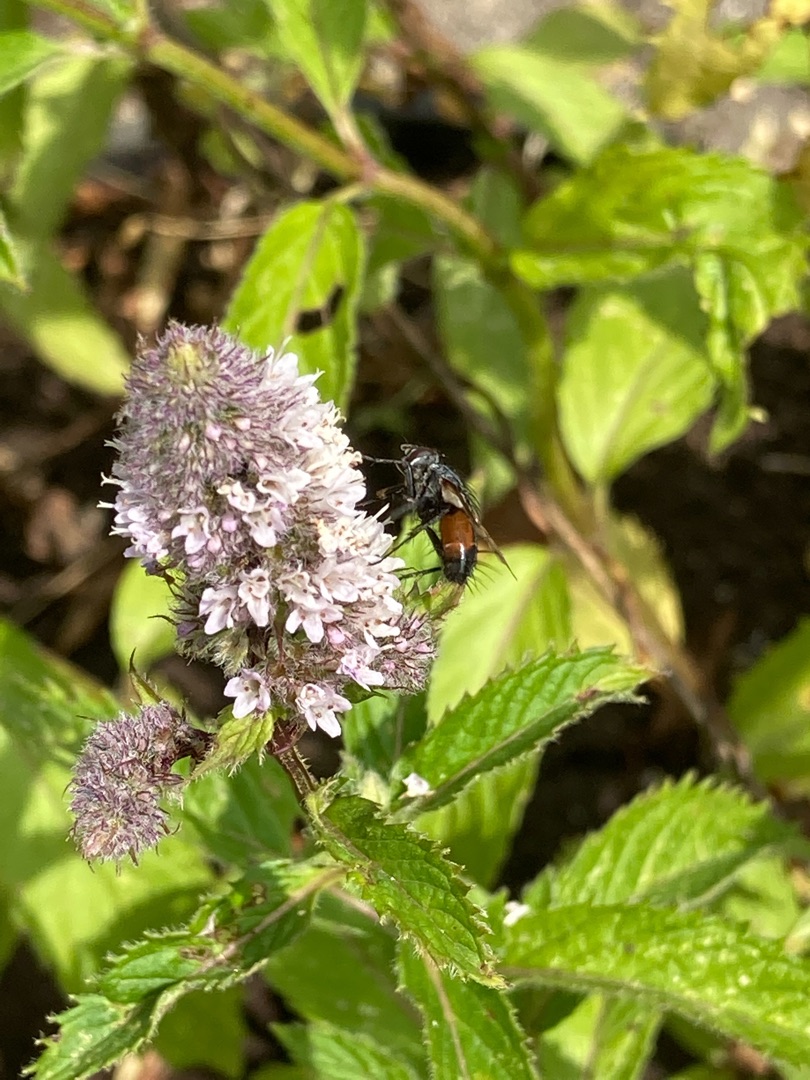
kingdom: Animalia
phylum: Arthropoda
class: Insecta
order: Diptera
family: Tachinidae
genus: Eriothrix
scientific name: Eriothrix rufomaculatus
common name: Rød snylteflue
